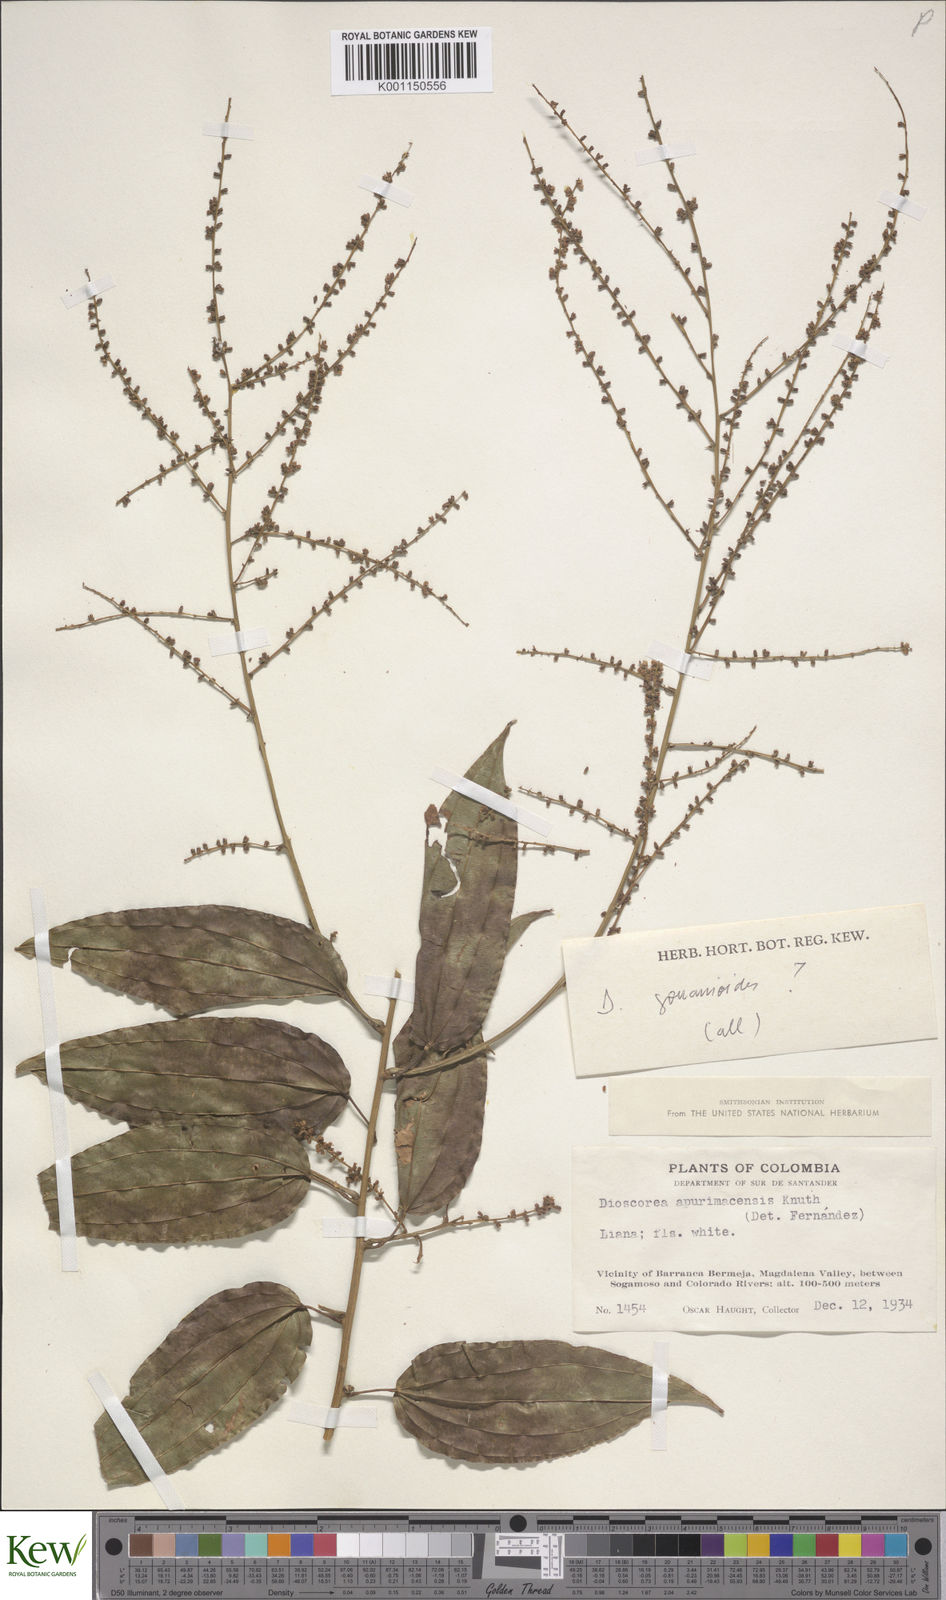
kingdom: Plantae
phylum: Tracheophyta
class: Liliopsida
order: Dioscoreales
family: Dioscoreaceae
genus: Dioscorea
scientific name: Dioscorea acanthogene
